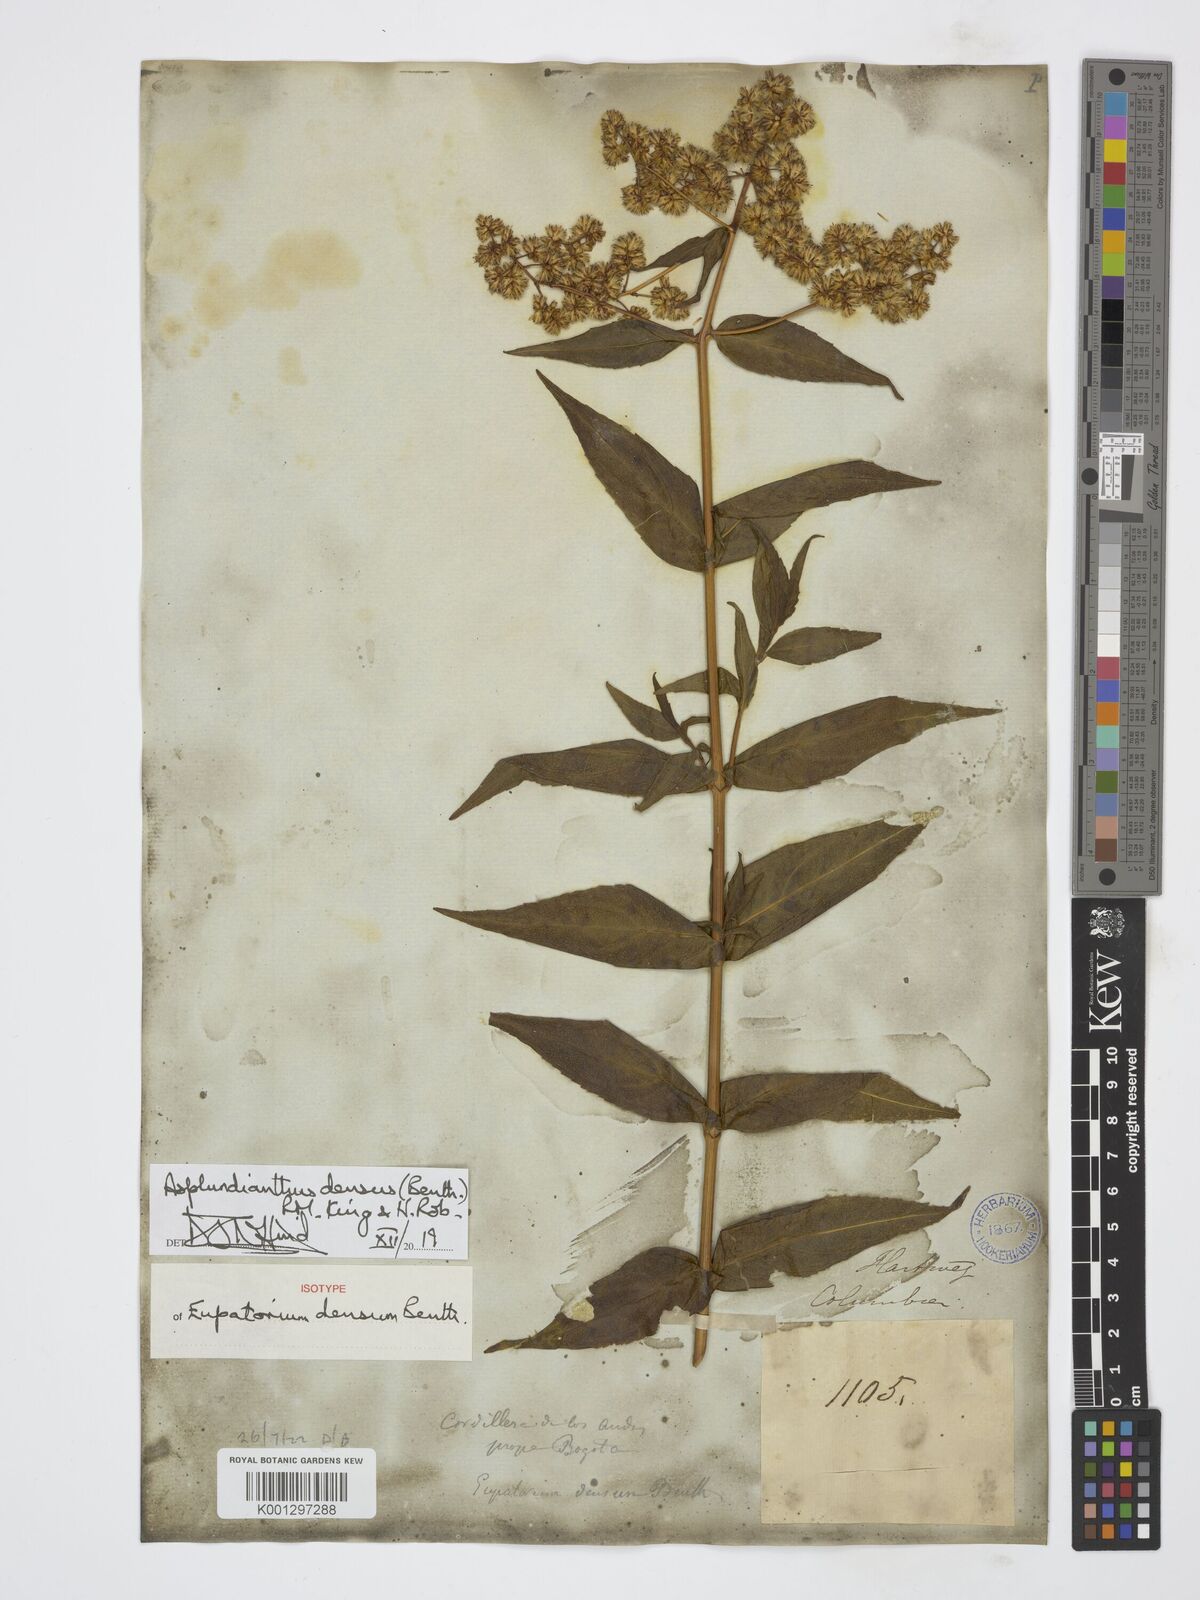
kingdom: Plantae
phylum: Tracheophyta
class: Magnoliopsida
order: Asterales
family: Asteraceae
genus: Asplundianthus
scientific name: Asplundianthus densus
